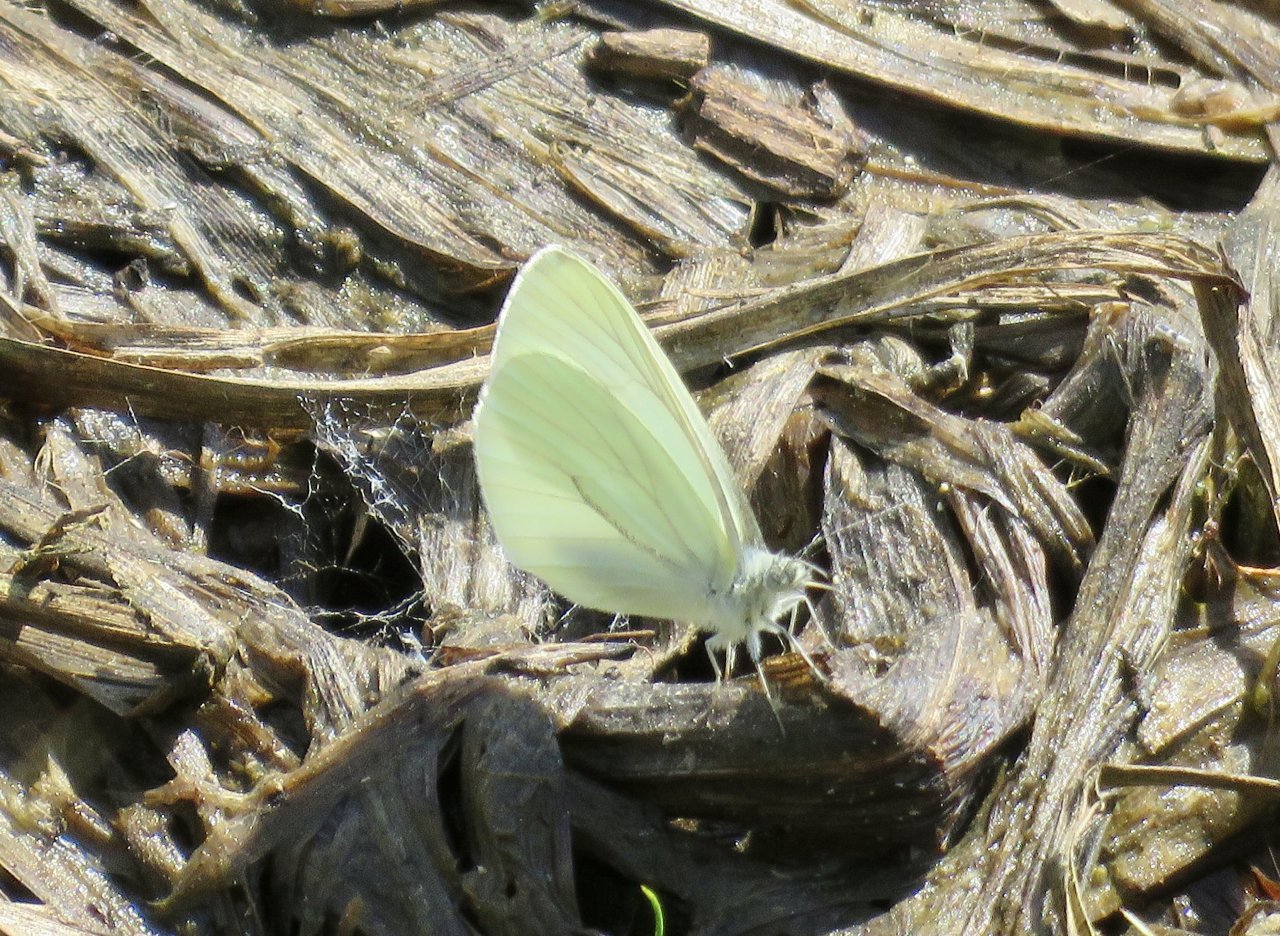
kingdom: Animalia
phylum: Arthropoda
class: Insecta
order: Lepidoptera
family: Pieridae
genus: Pieris
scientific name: Pieris marginalis
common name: Margined White
